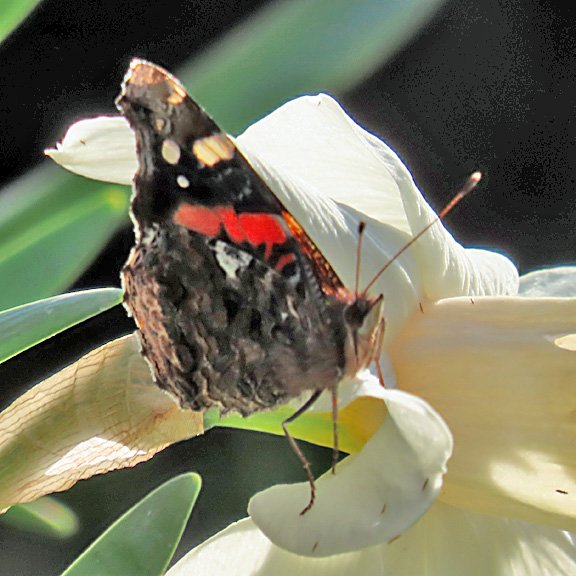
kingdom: Animalia
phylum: Arthropoda
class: Insecta
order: Lepidoptera
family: Nymphalidae
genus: Vanessa
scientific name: Vanessa atalanta
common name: Red Admiral
